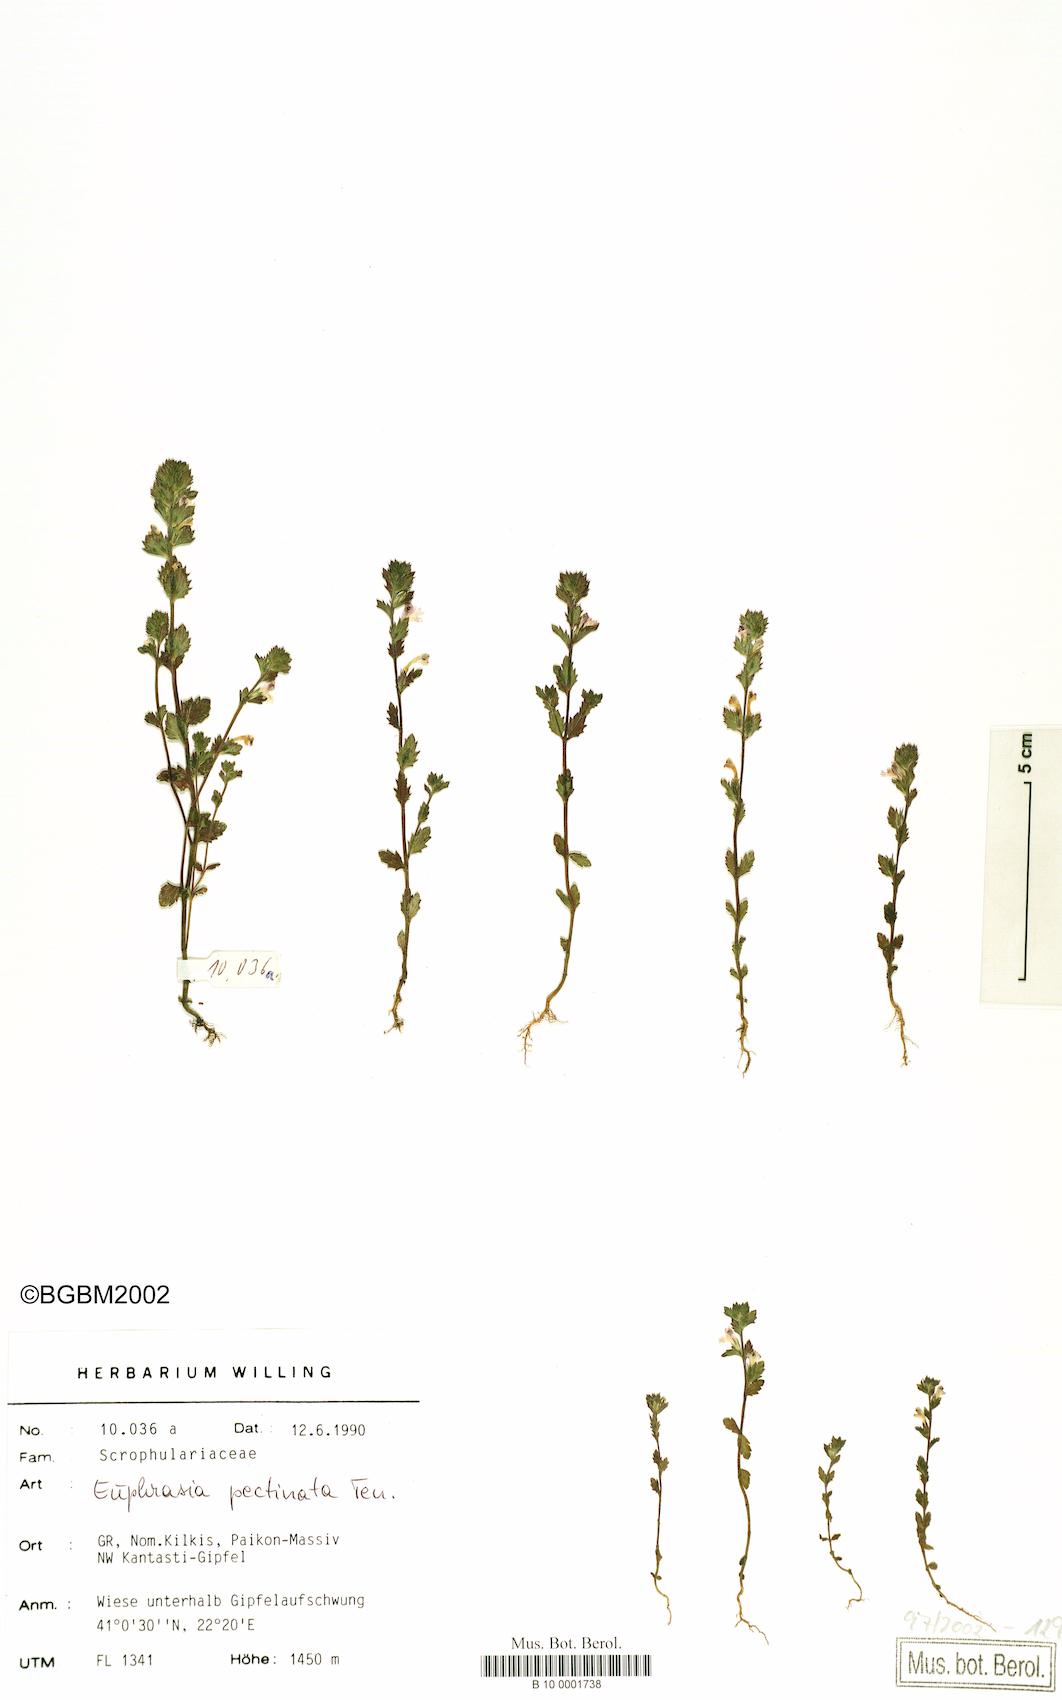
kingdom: Plantae
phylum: Tracheophyta
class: Magnoliopsida
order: Lamiales
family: Orobanchaceae
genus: Euphrasia
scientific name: Euphrasia pectinata
